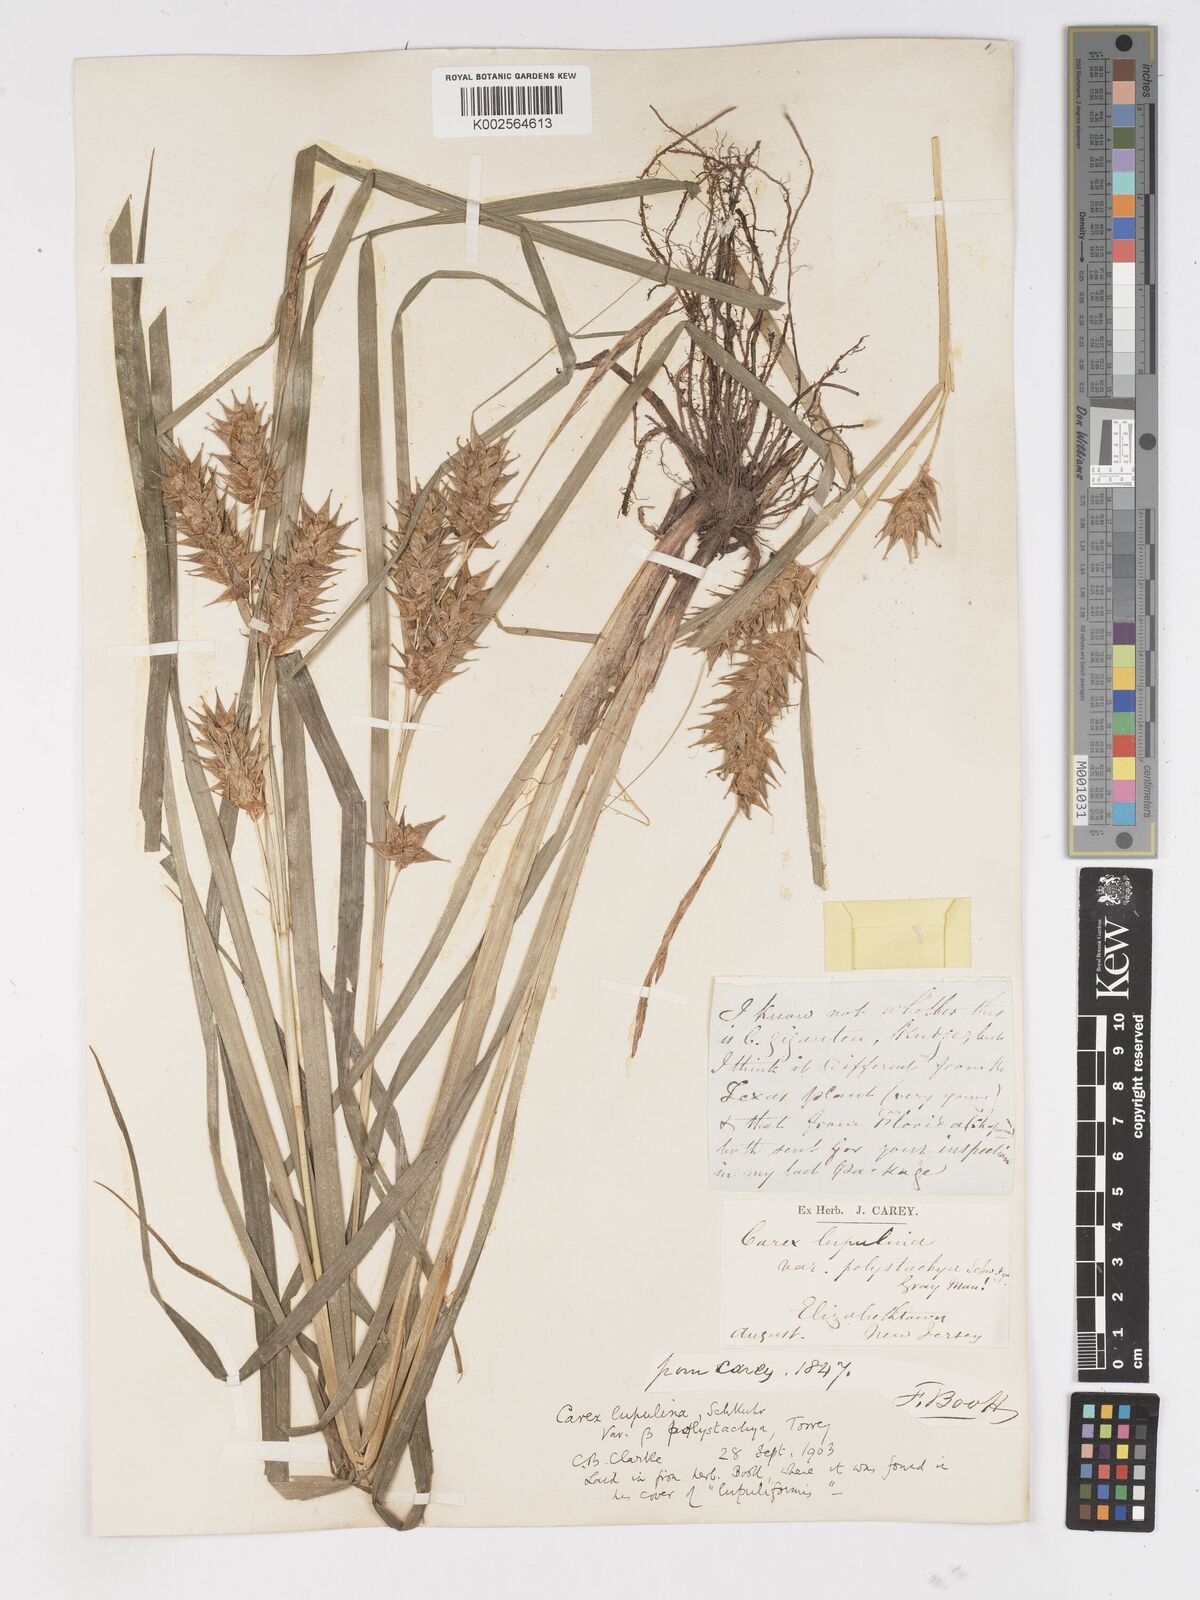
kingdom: Plantae
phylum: Tracheophyta
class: Liliopsida
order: Poales
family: Cyperaceae
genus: Carex
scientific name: Carex lupuliformis
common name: False hop sedge
